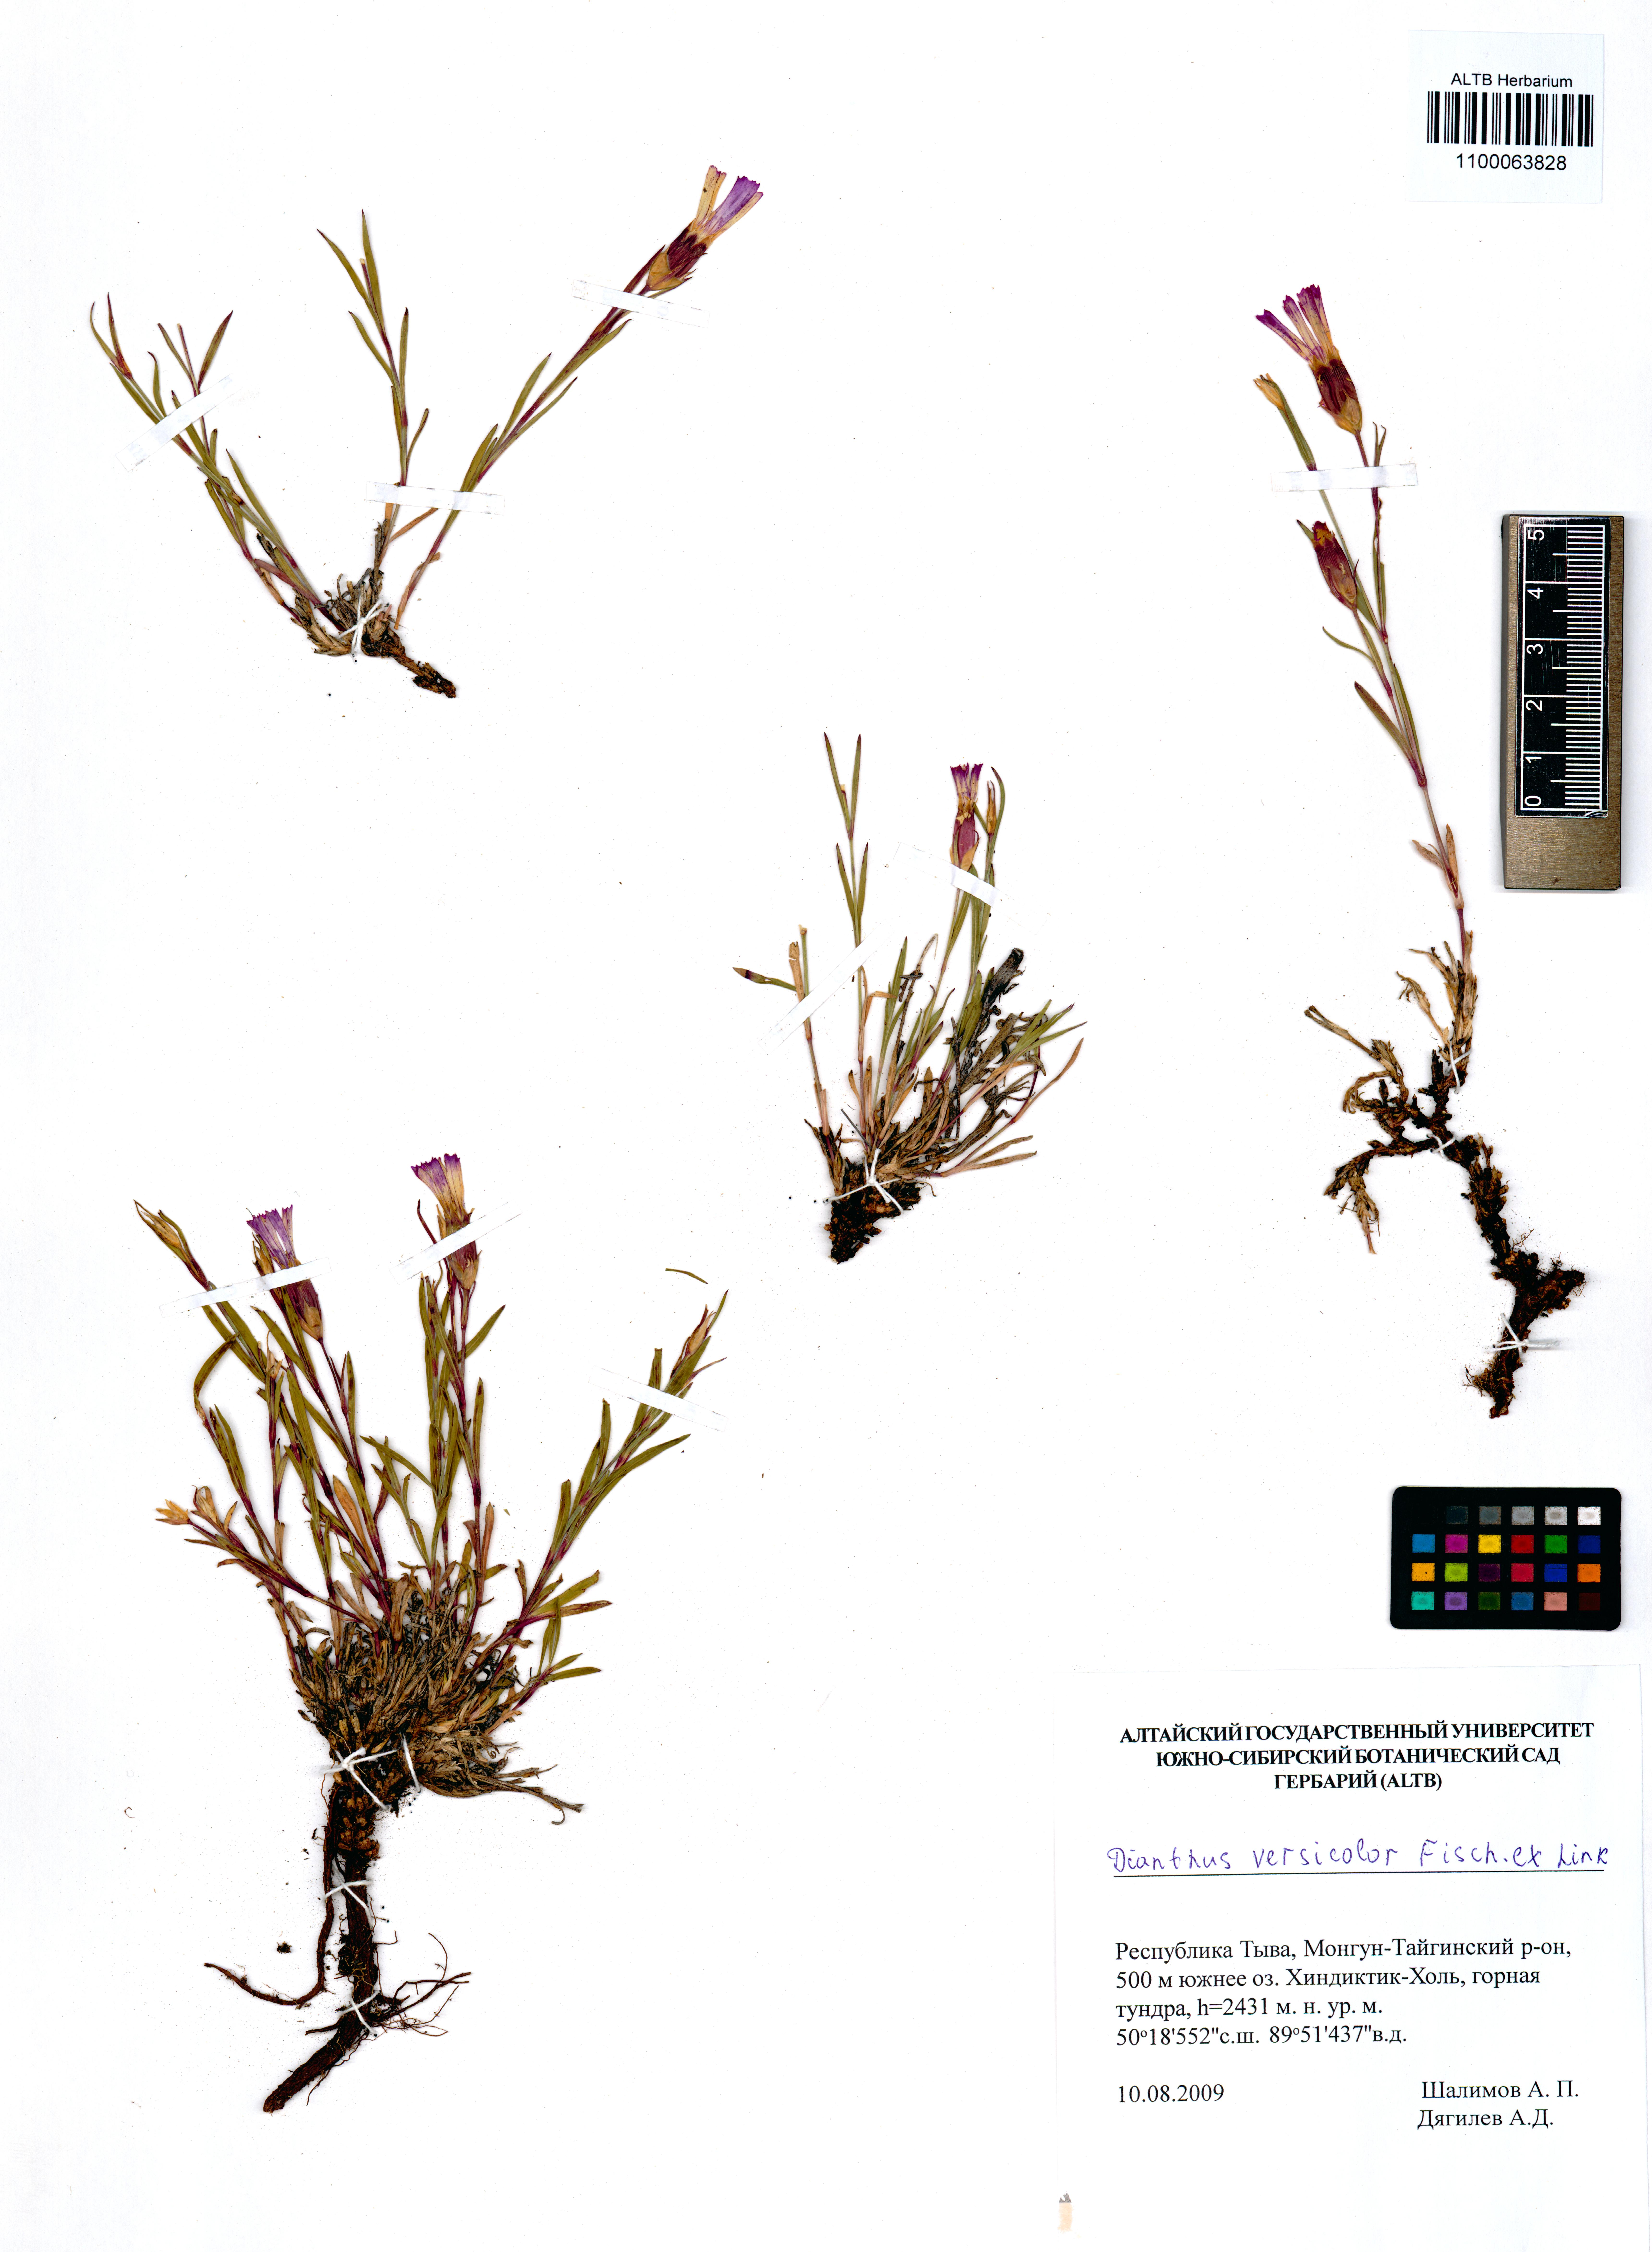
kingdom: Plantae
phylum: Tracheophyta
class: Magnoliopsida
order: Caryophyllales
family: Caryophyllaceae
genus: Dianthus
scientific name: Dianthus chinensis
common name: Rainbow pink
